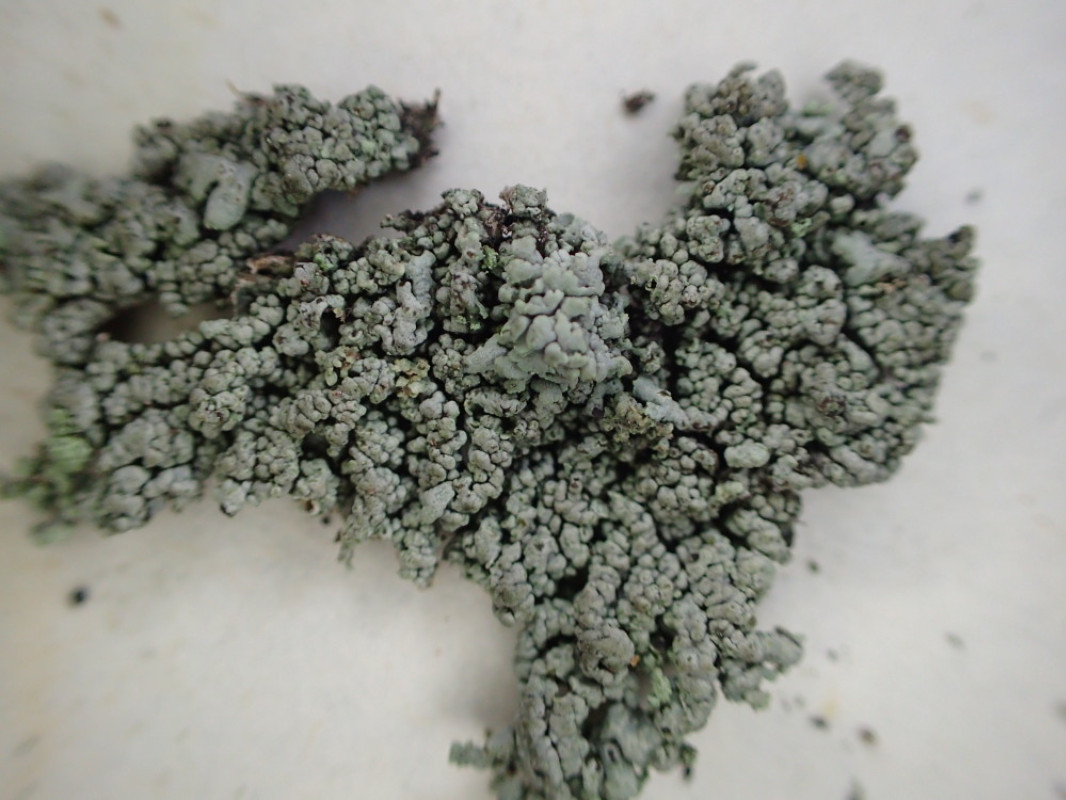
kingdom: Fungi
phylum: Ascomycota
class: Lecanoromycetes
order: Caliciales
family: Physciaceae
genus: Physcia
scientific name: Physcia stellaris
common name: stjerneformet rosetlav
